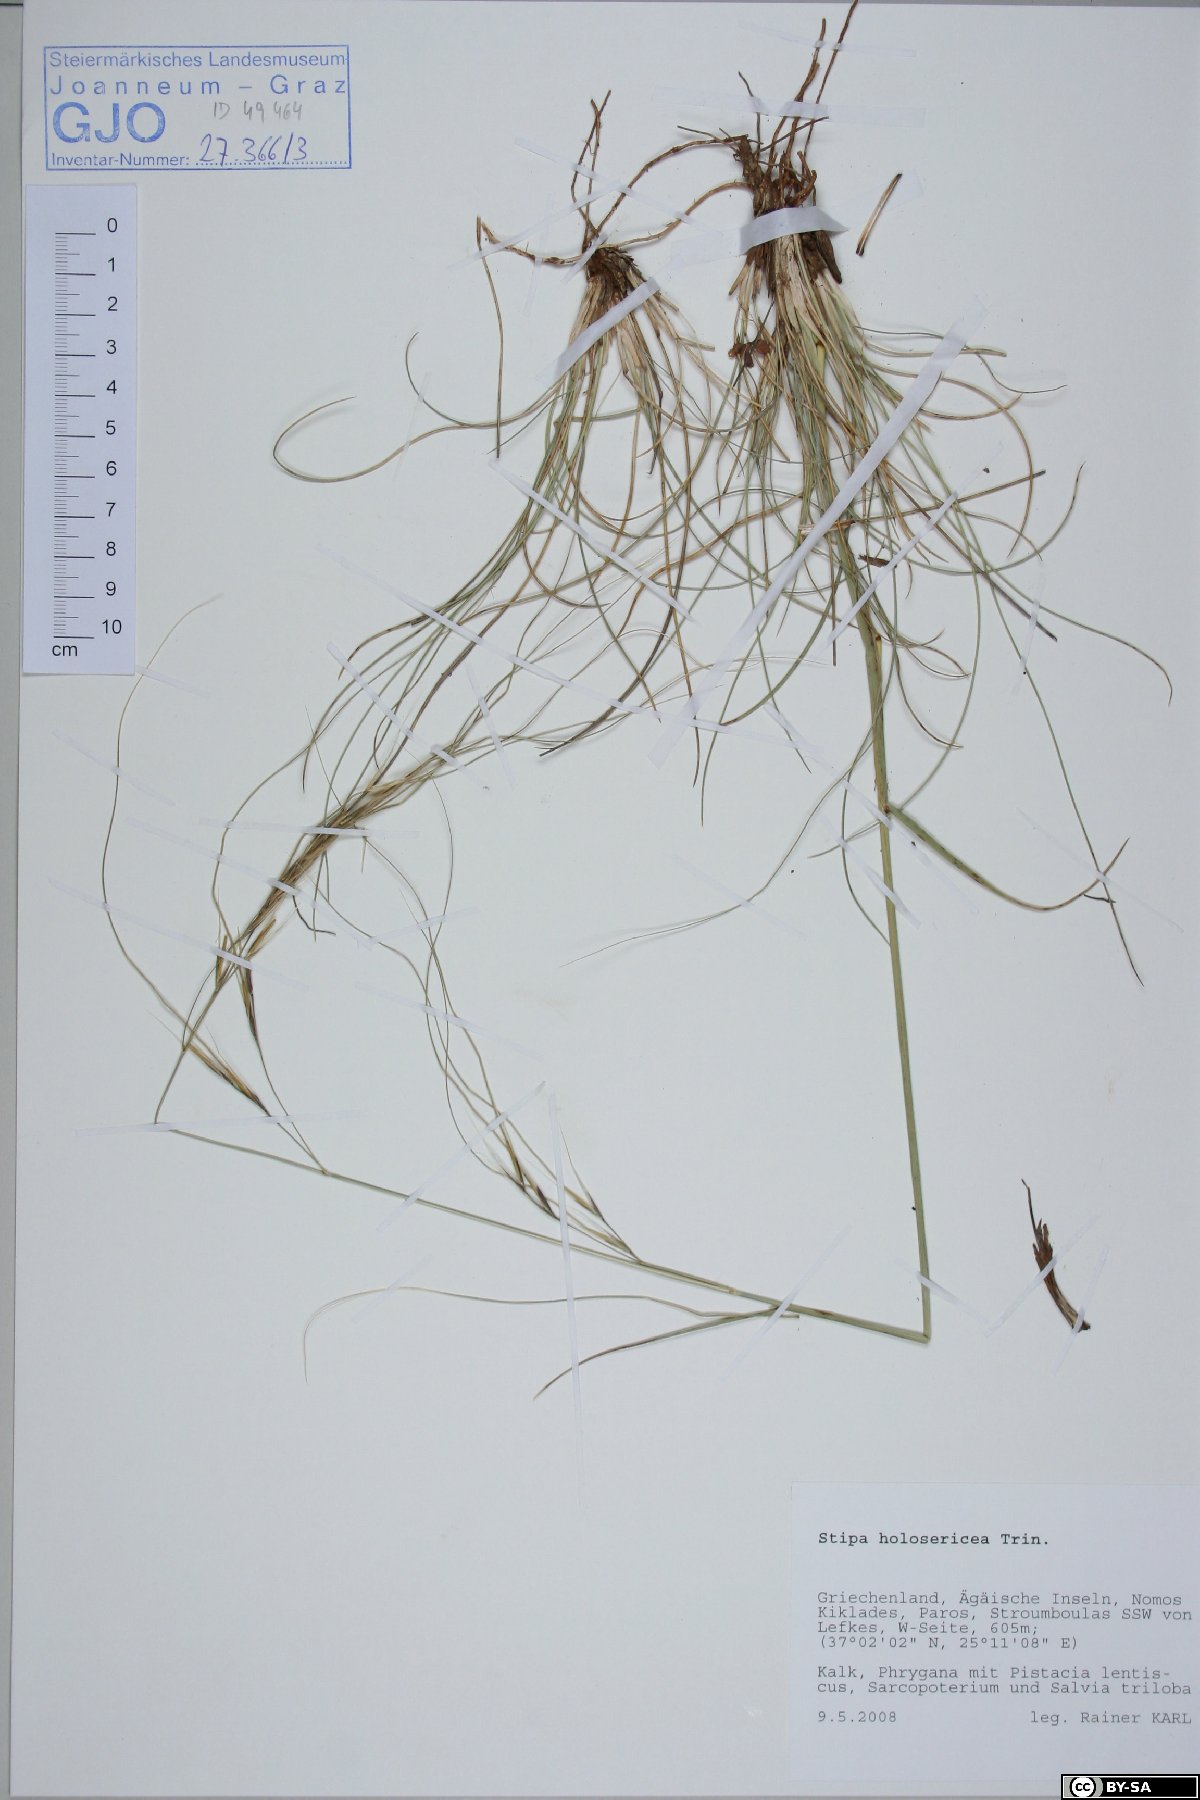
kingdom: Plantae
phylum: Tracheophyta
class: Liliopsida
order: Poales
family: Poaceae
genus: Stipa
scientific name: Stipa holosericea
